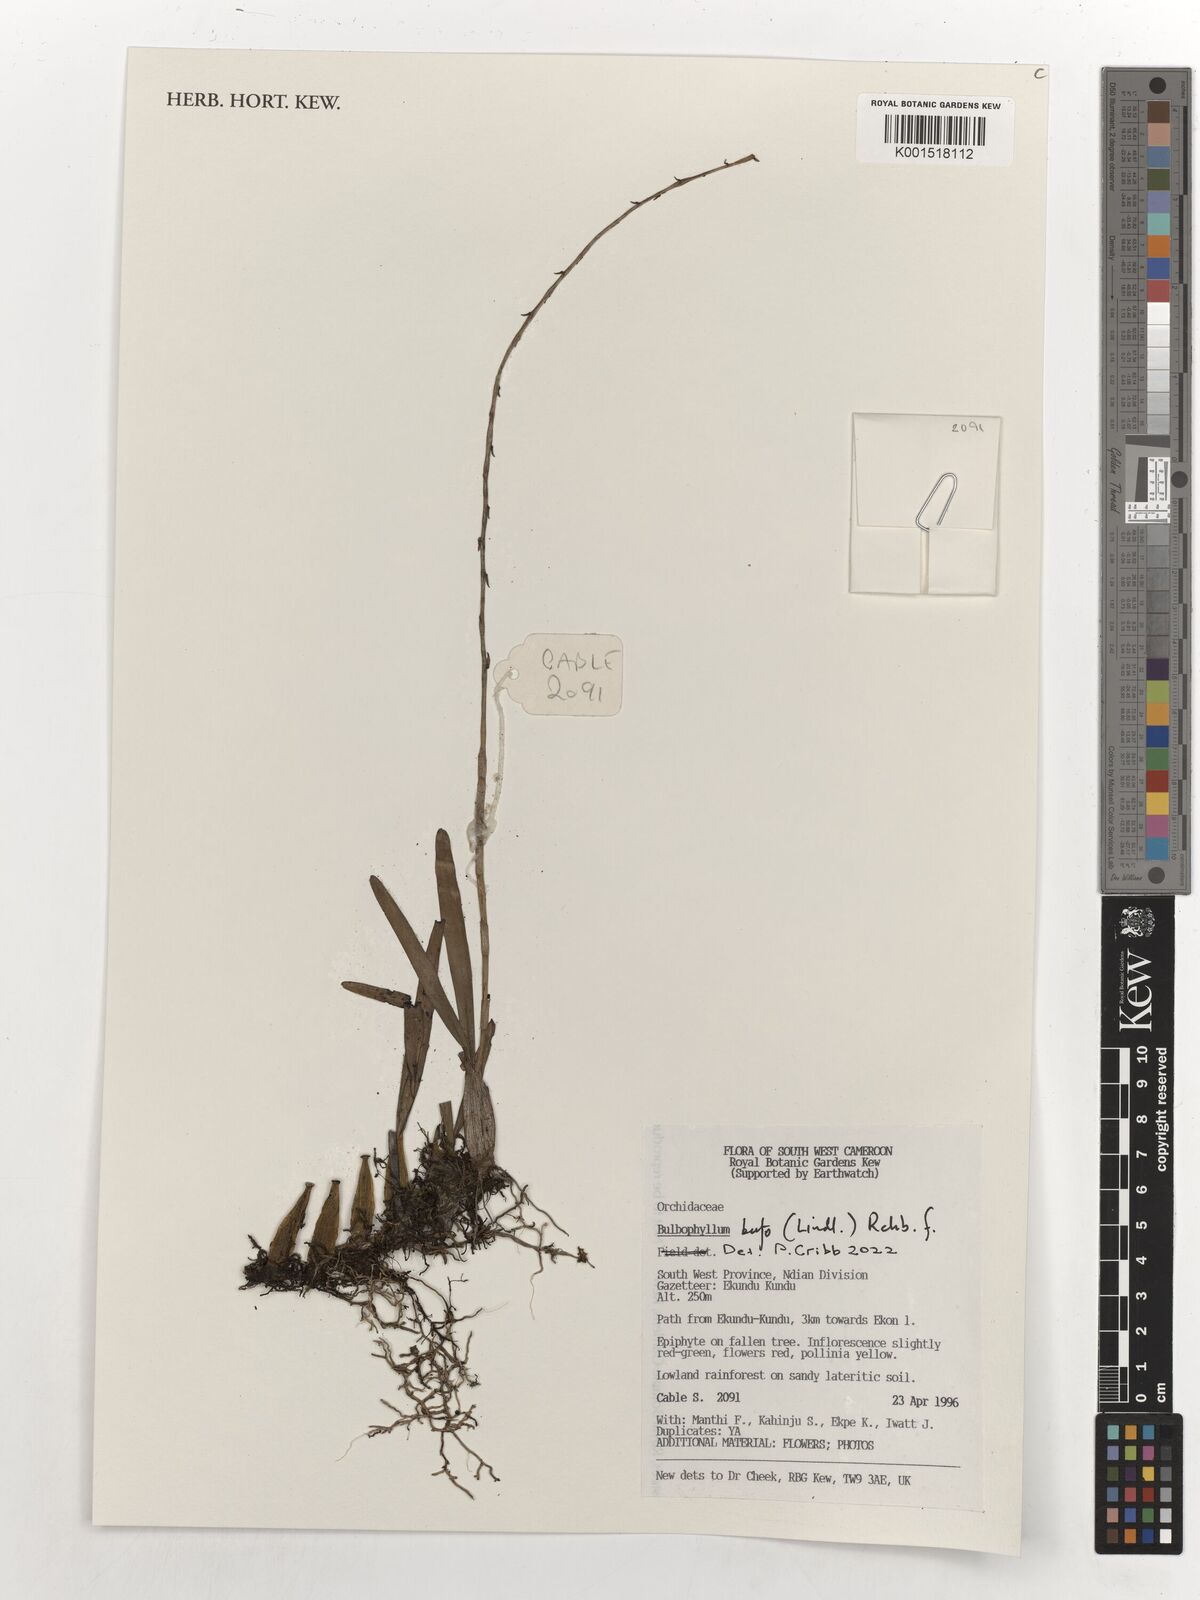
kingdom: Plantae
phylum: Tracheophyta
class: Liliopsida
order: Asparagales
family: Orchidaceae
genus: Bulbophyllum
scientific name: Bulbophyllum falcatum
